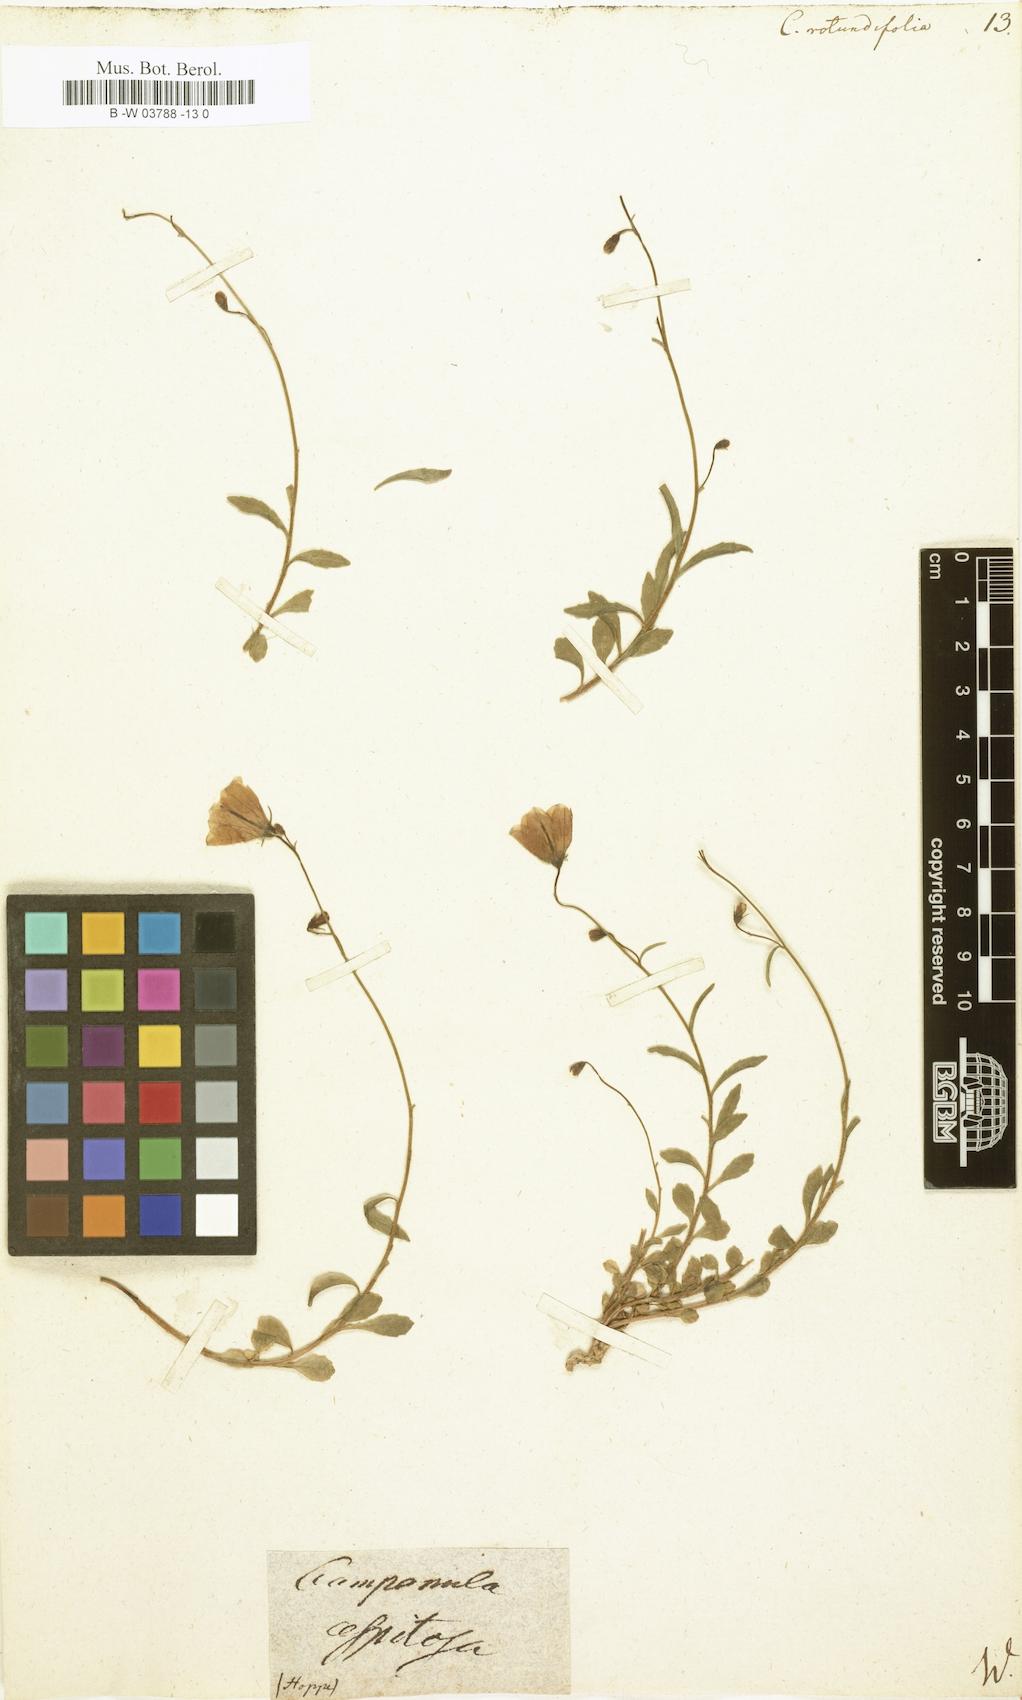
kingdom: Plantae
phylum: Tracheophyta
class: Magnoliopsida
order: Asterales
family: Campanulaceae
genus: Campanula
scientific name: Campanula rotundifolia
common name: Harebell
